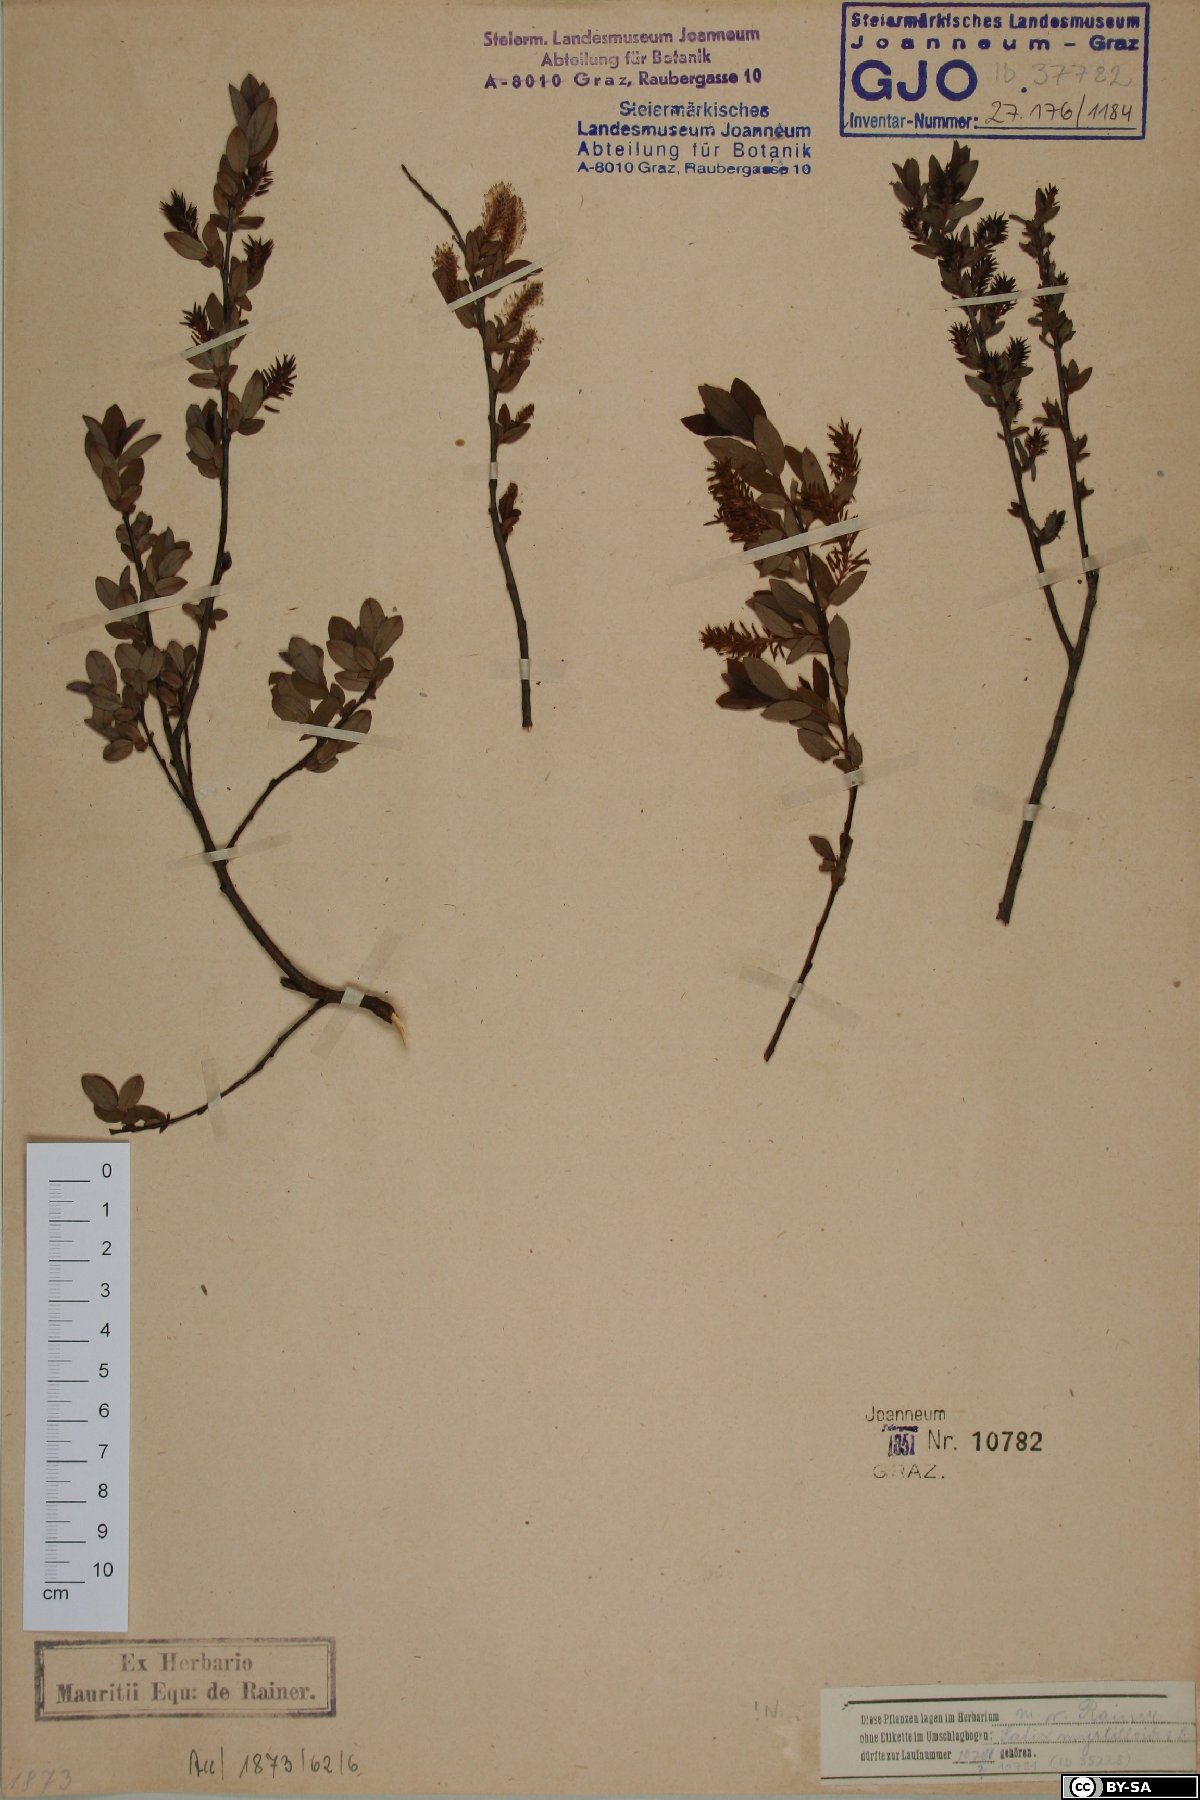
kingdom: Plantae
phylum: Tracheophyta
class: Magnoliopsida
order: Malpighiales
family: Salicaceae
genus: Salix
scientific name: Salix myrtilloides
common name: Myrtle-leaved willow
